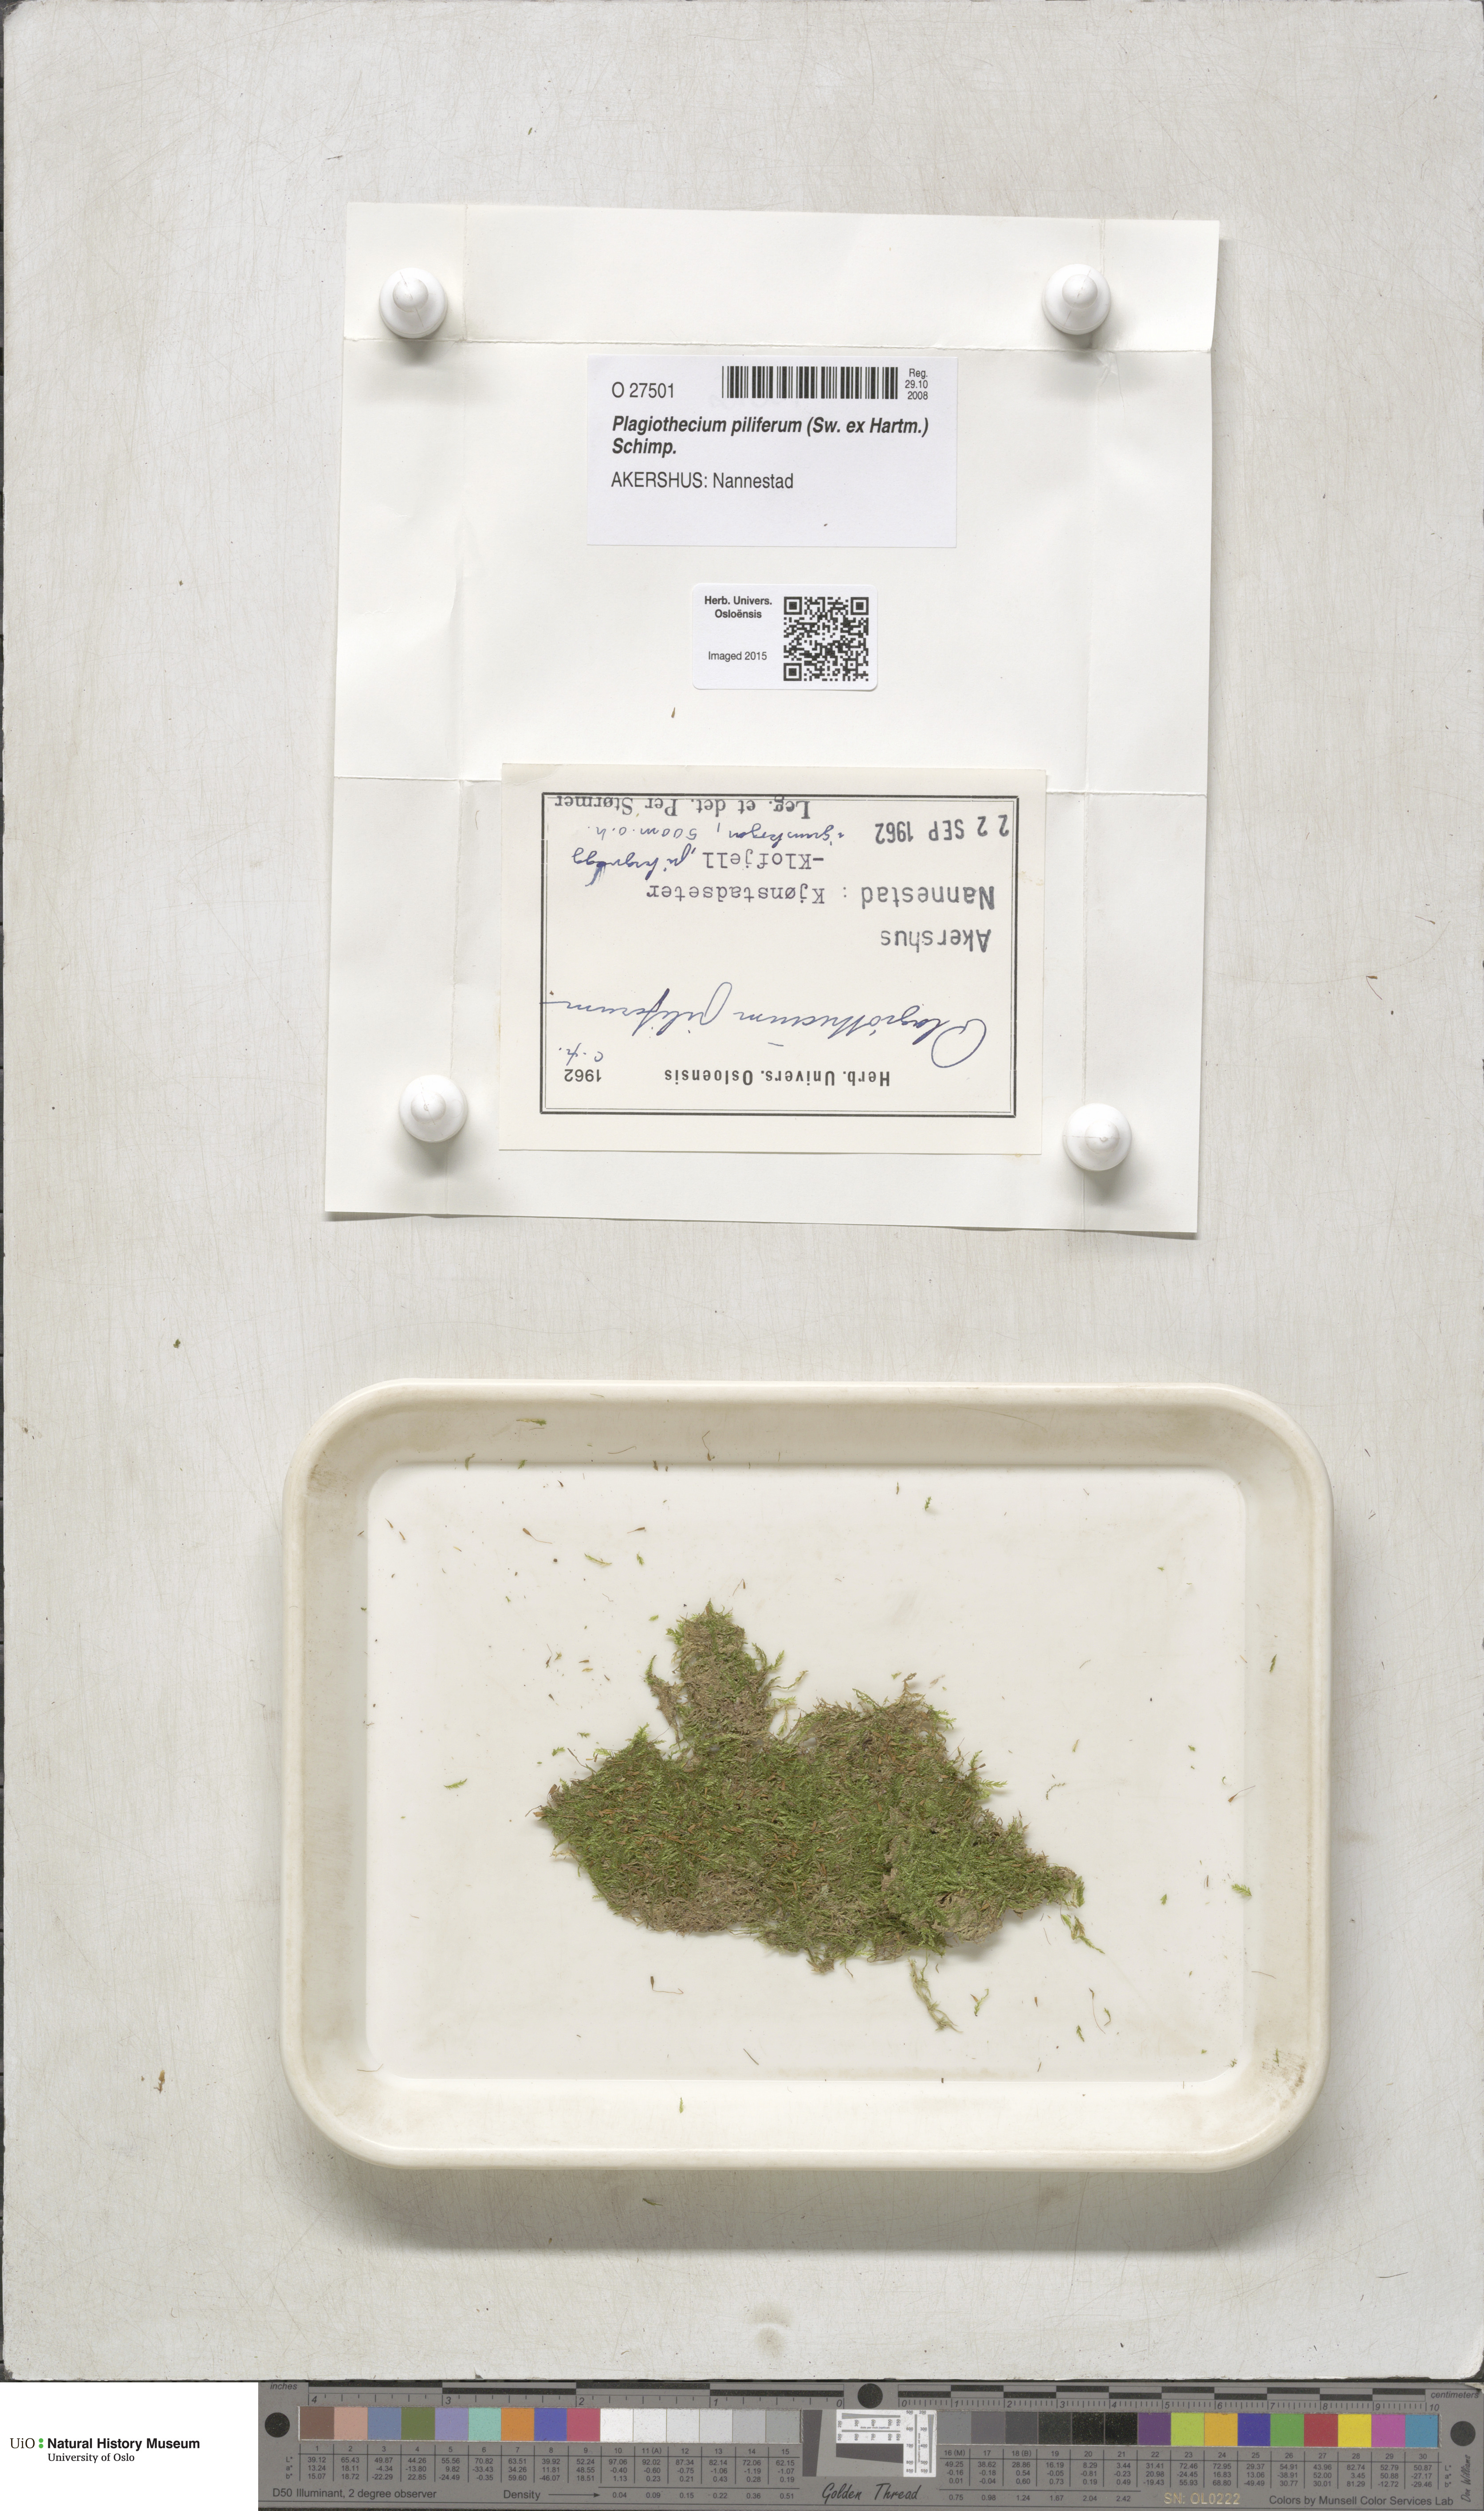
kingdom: Plantae
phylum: Bryophyta
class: Bryopsida
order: Hypnales
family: Plagiotheciaceae
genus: Rectithecium
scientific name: Rectithecium piliferum
